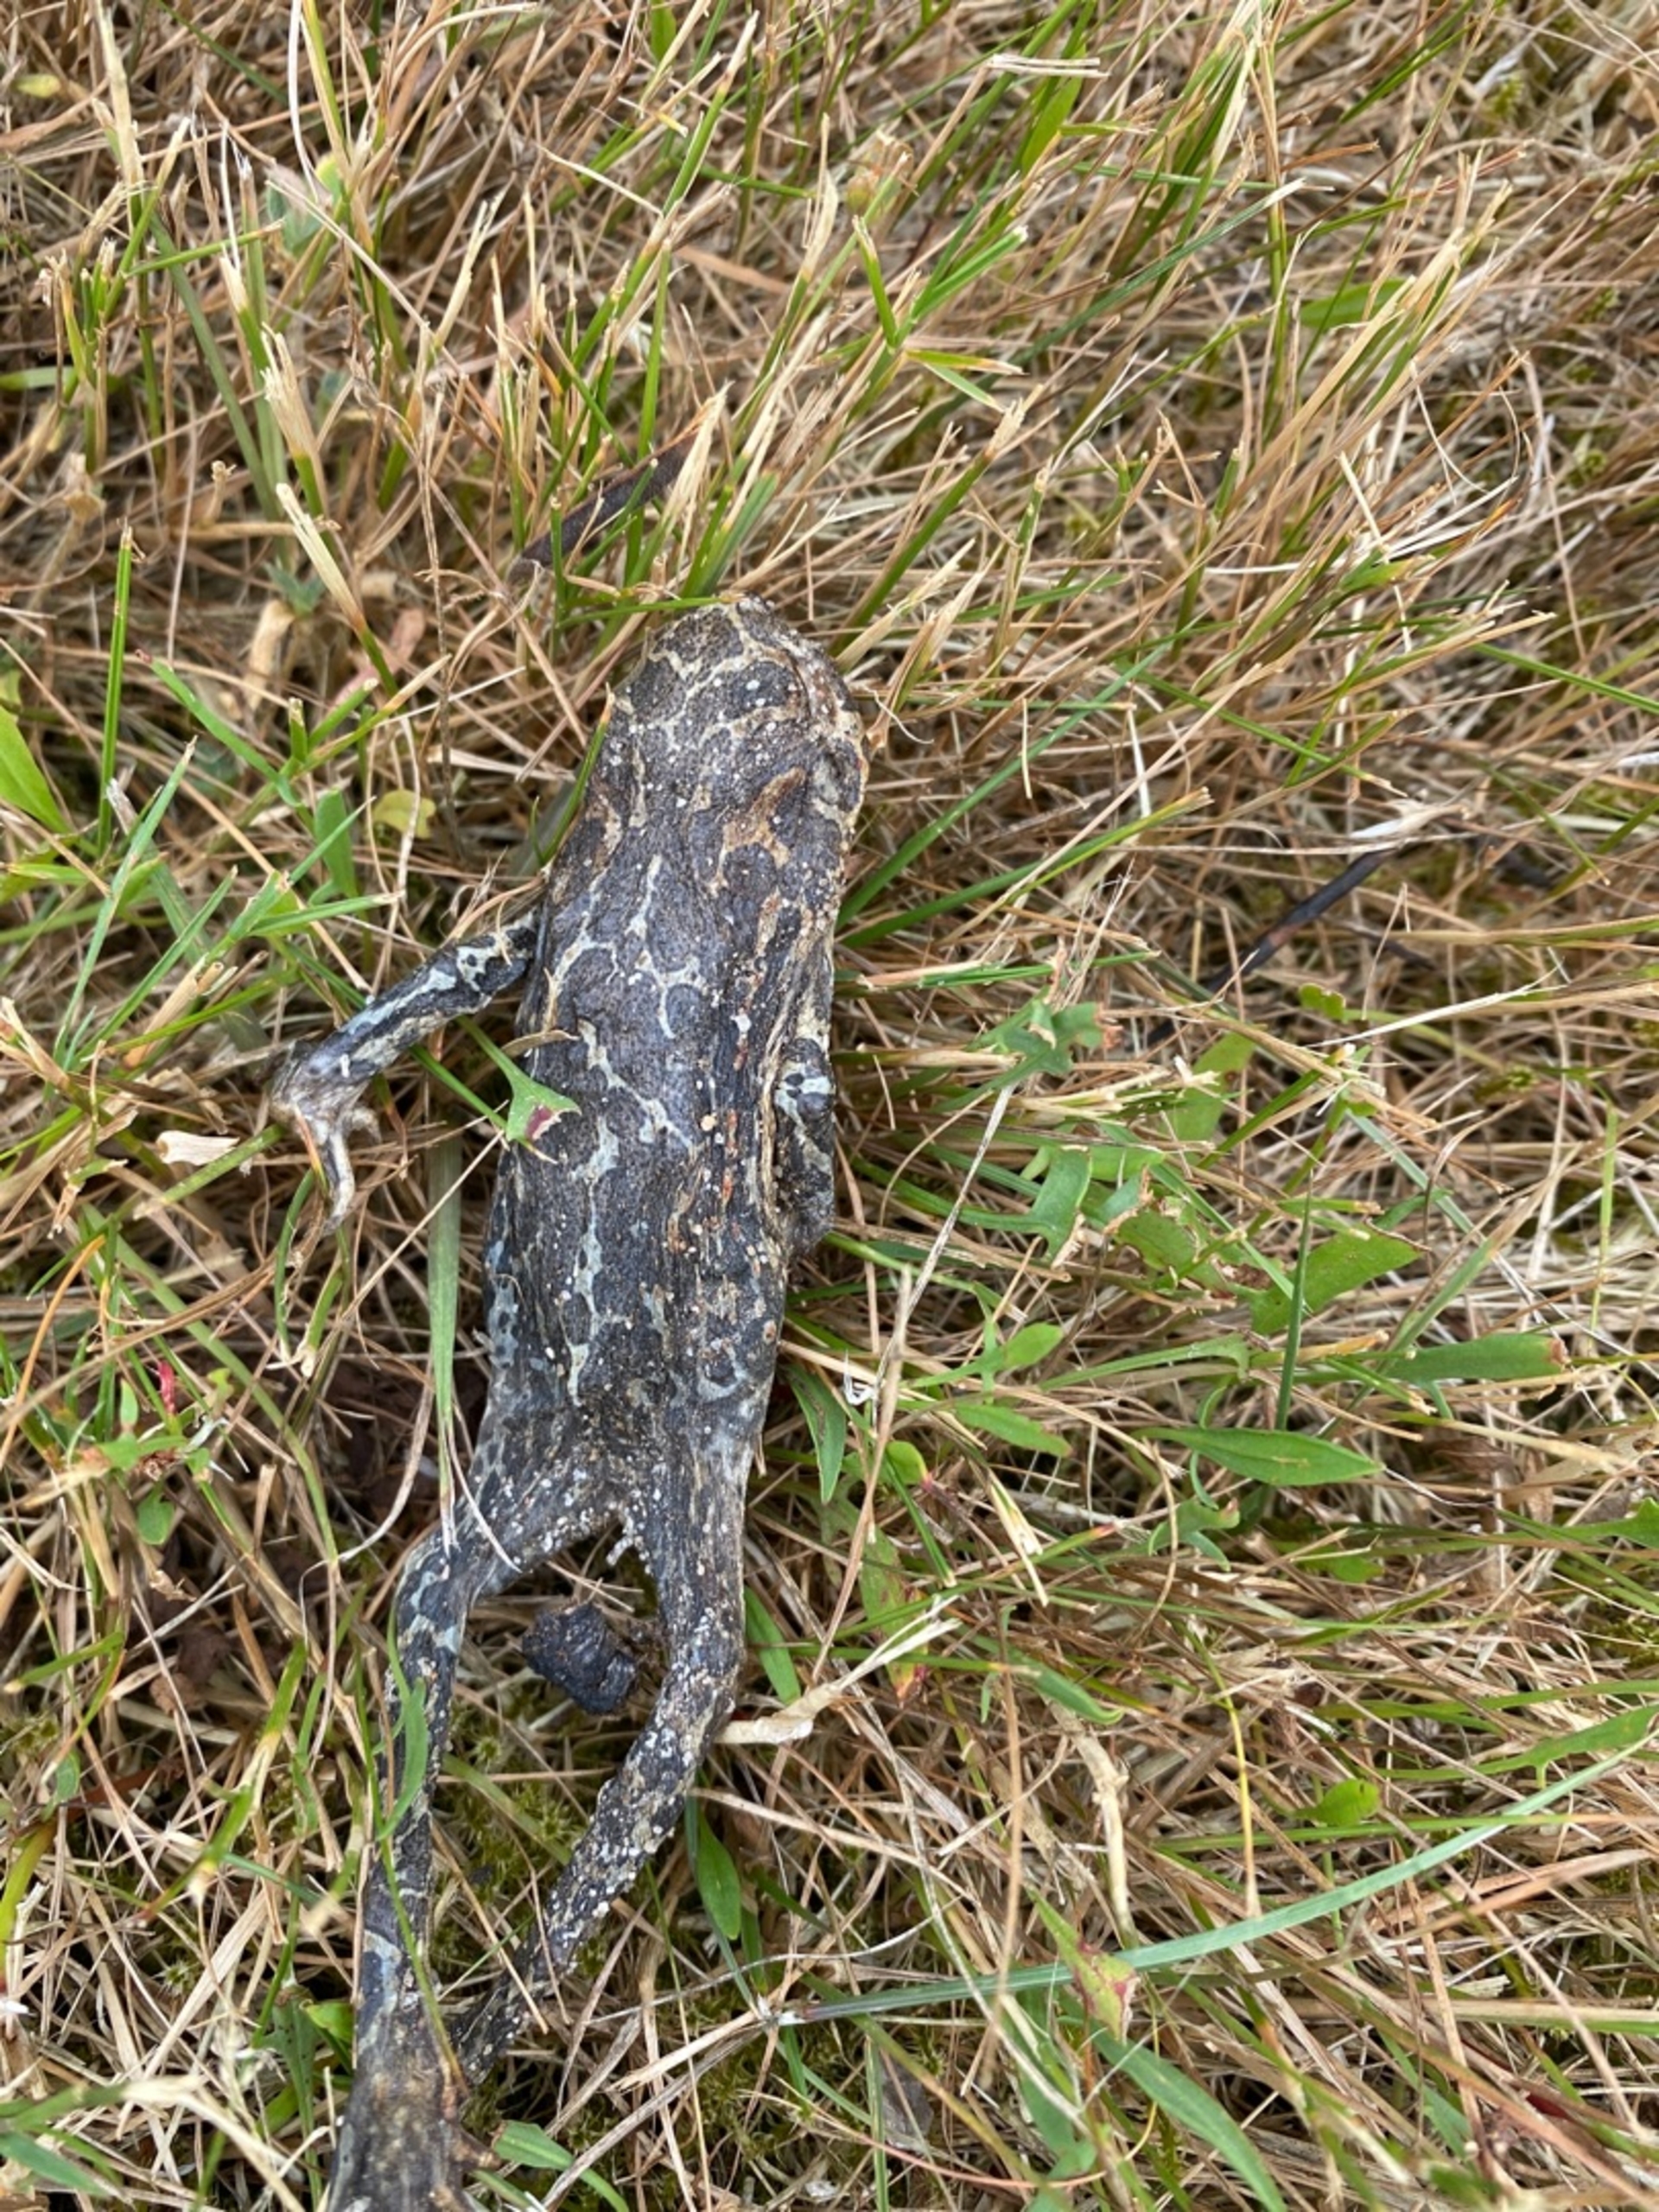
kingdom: Animalia
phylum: Chordata
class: Amphibia
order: Anura
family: Bufonidae
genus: Bufotes
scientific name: Bufotes viridis
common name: Grønbroget tudse
